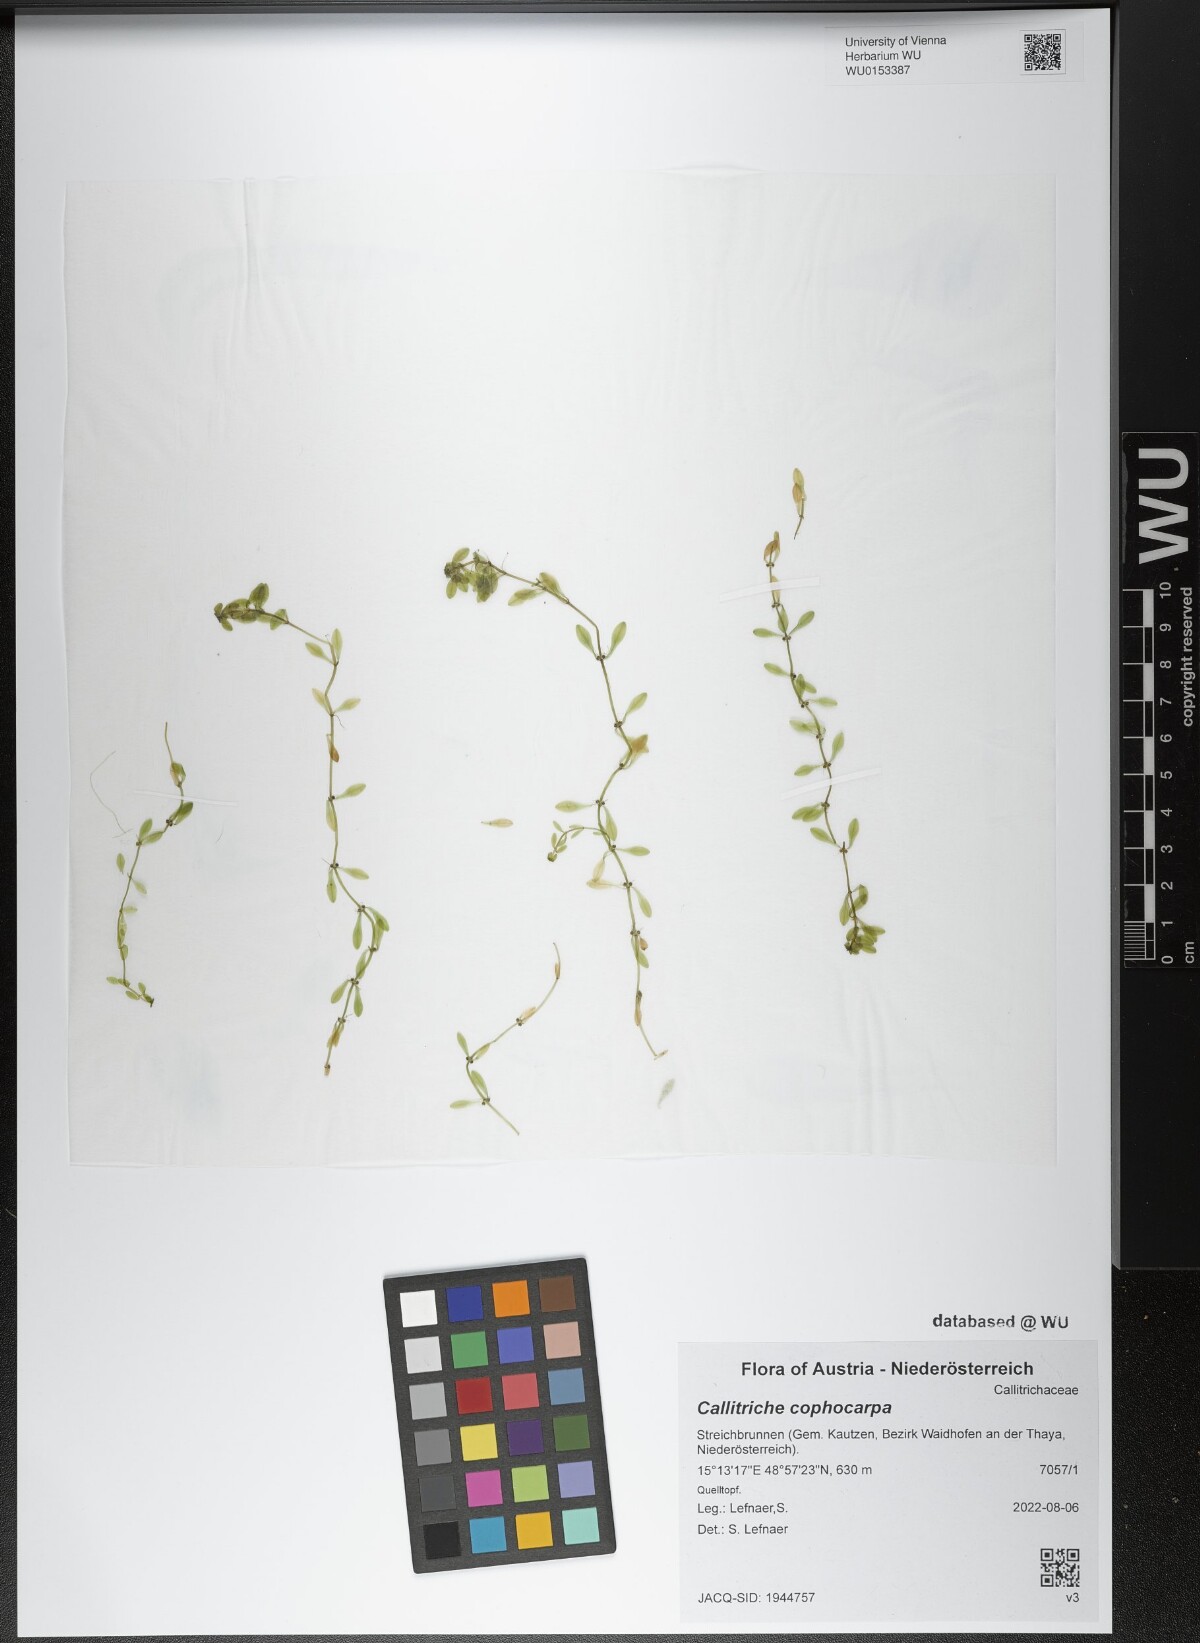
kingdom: Plantae
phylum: Tracheophyta
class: Magnoliopsida
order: Lamiales
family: Plantaginaceae
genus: Callitriche
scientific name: Callitriche cophocarpa
